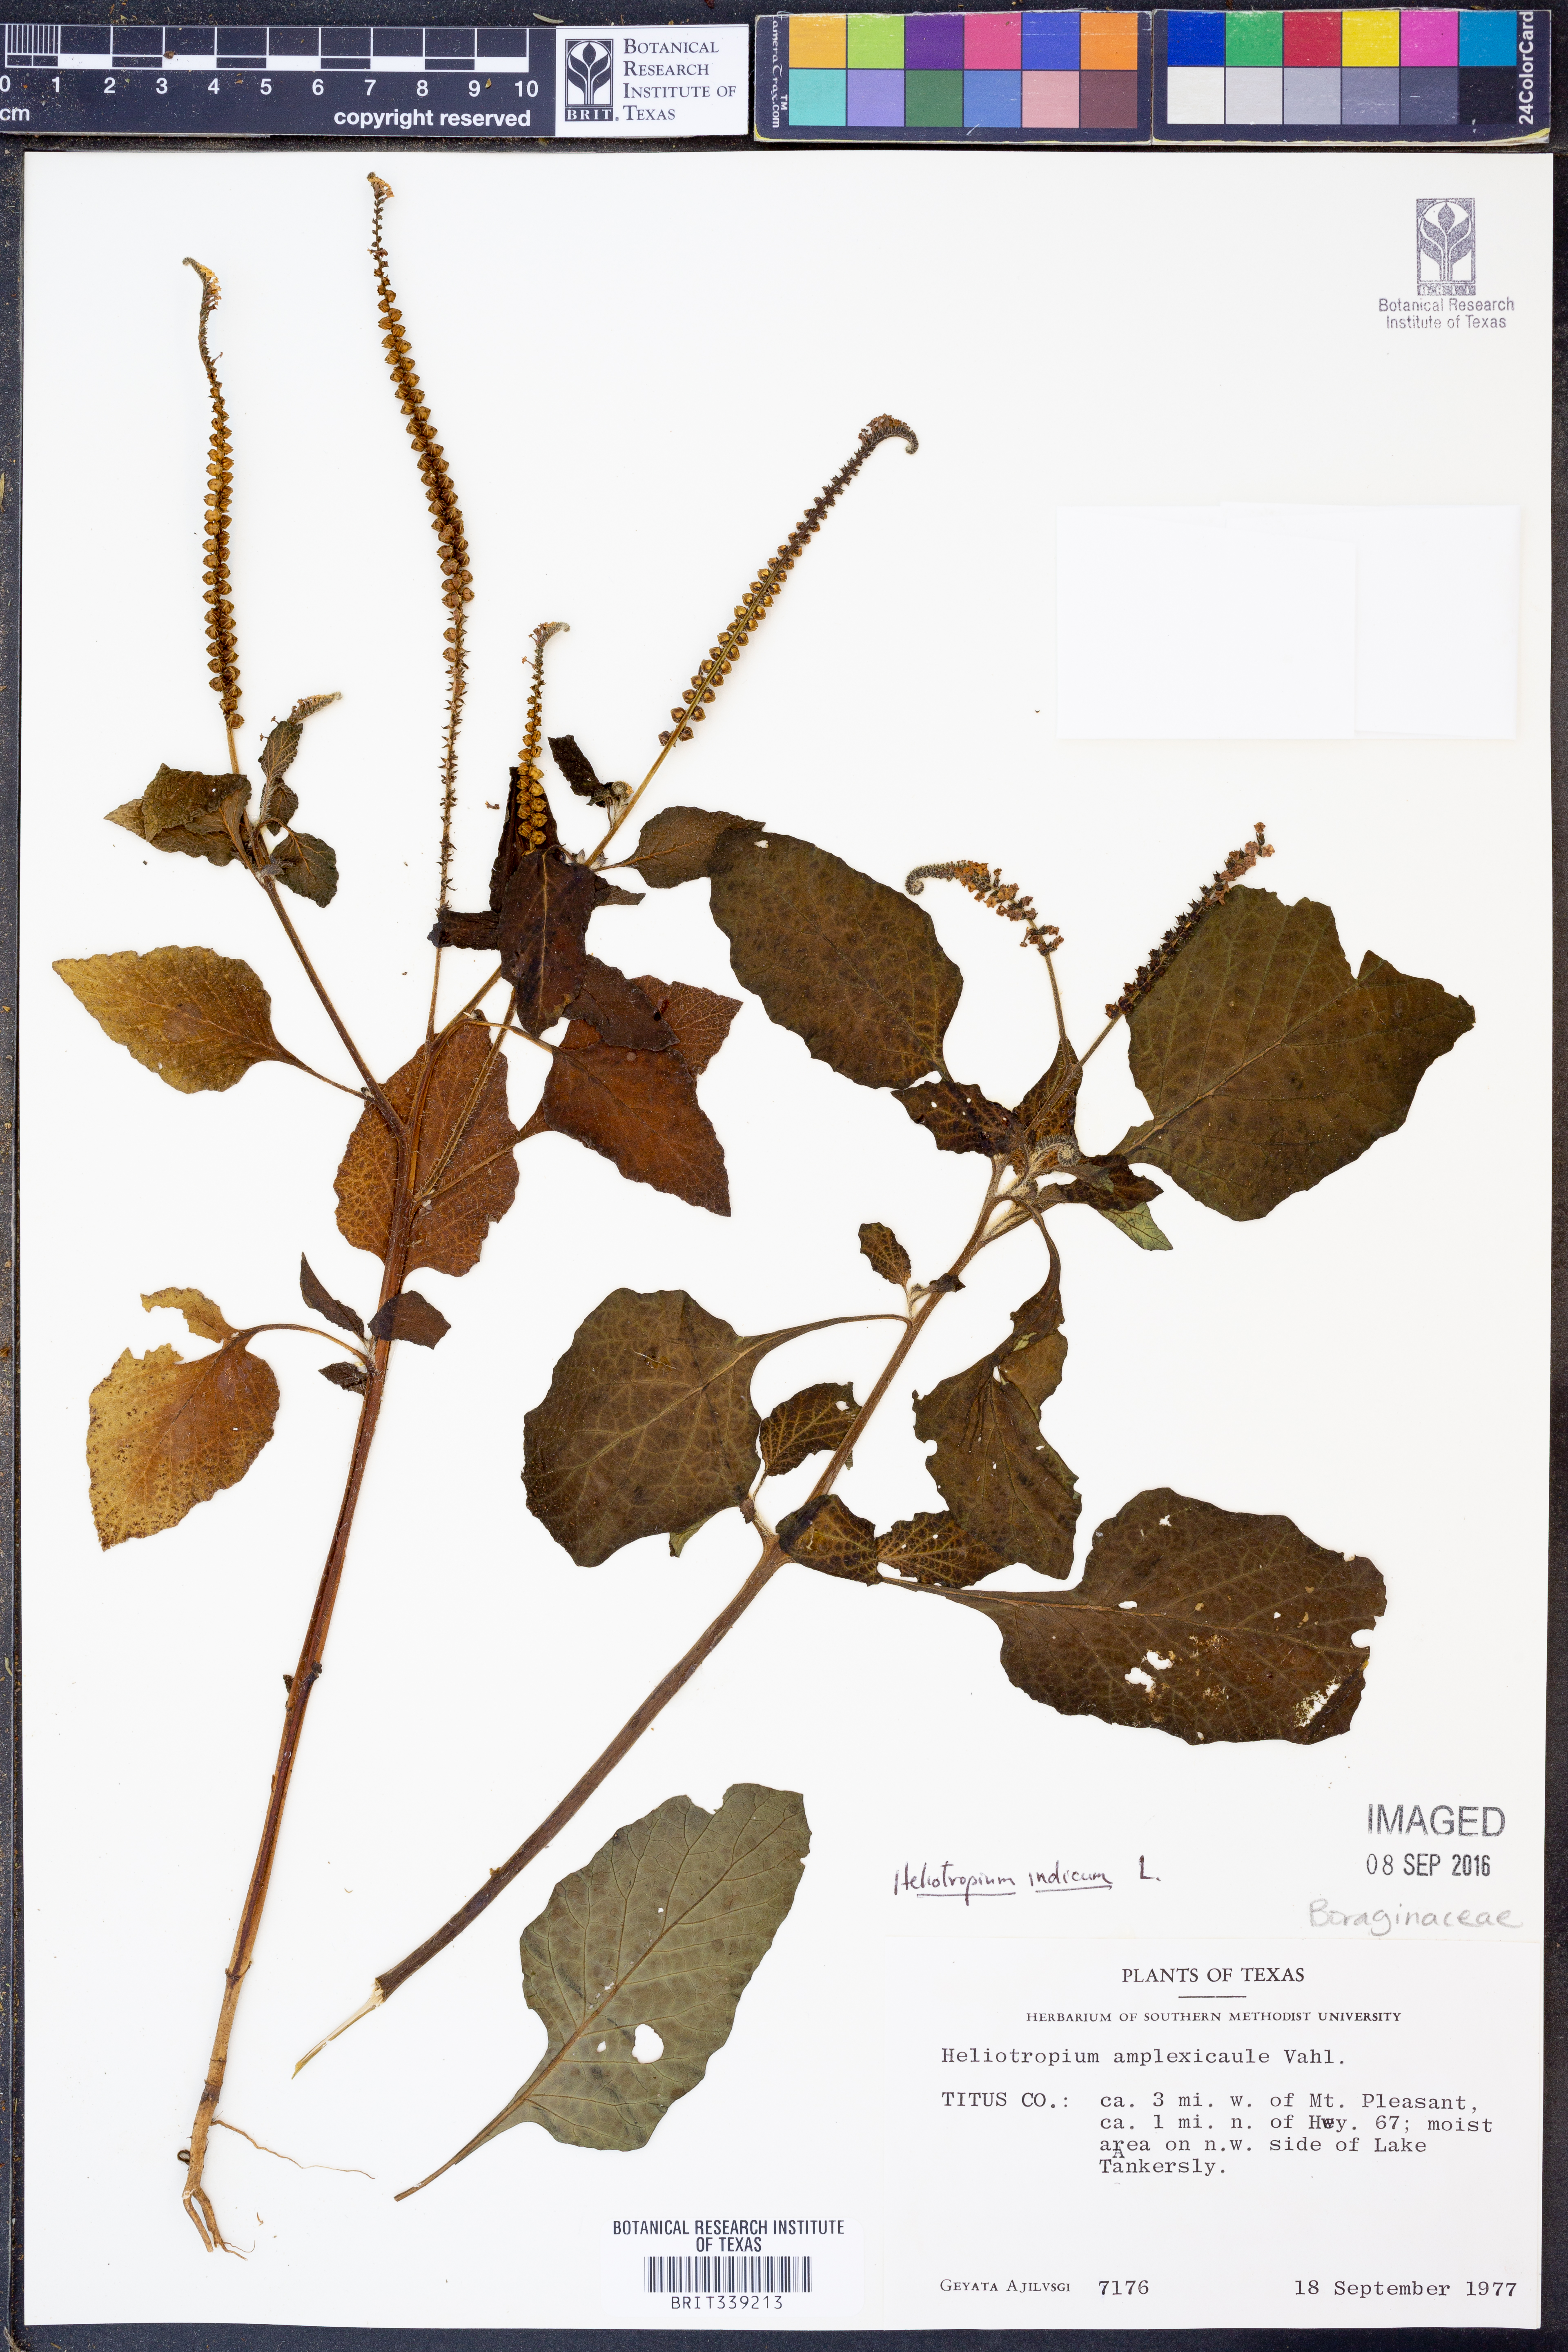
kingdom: Plantae
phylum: Tracheophyta
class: Magnoliopsida
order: Boraginales
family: Heliotropiaceae
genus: Heliotropium
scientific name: Heliotropium indicum
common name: Indian heliotrope
